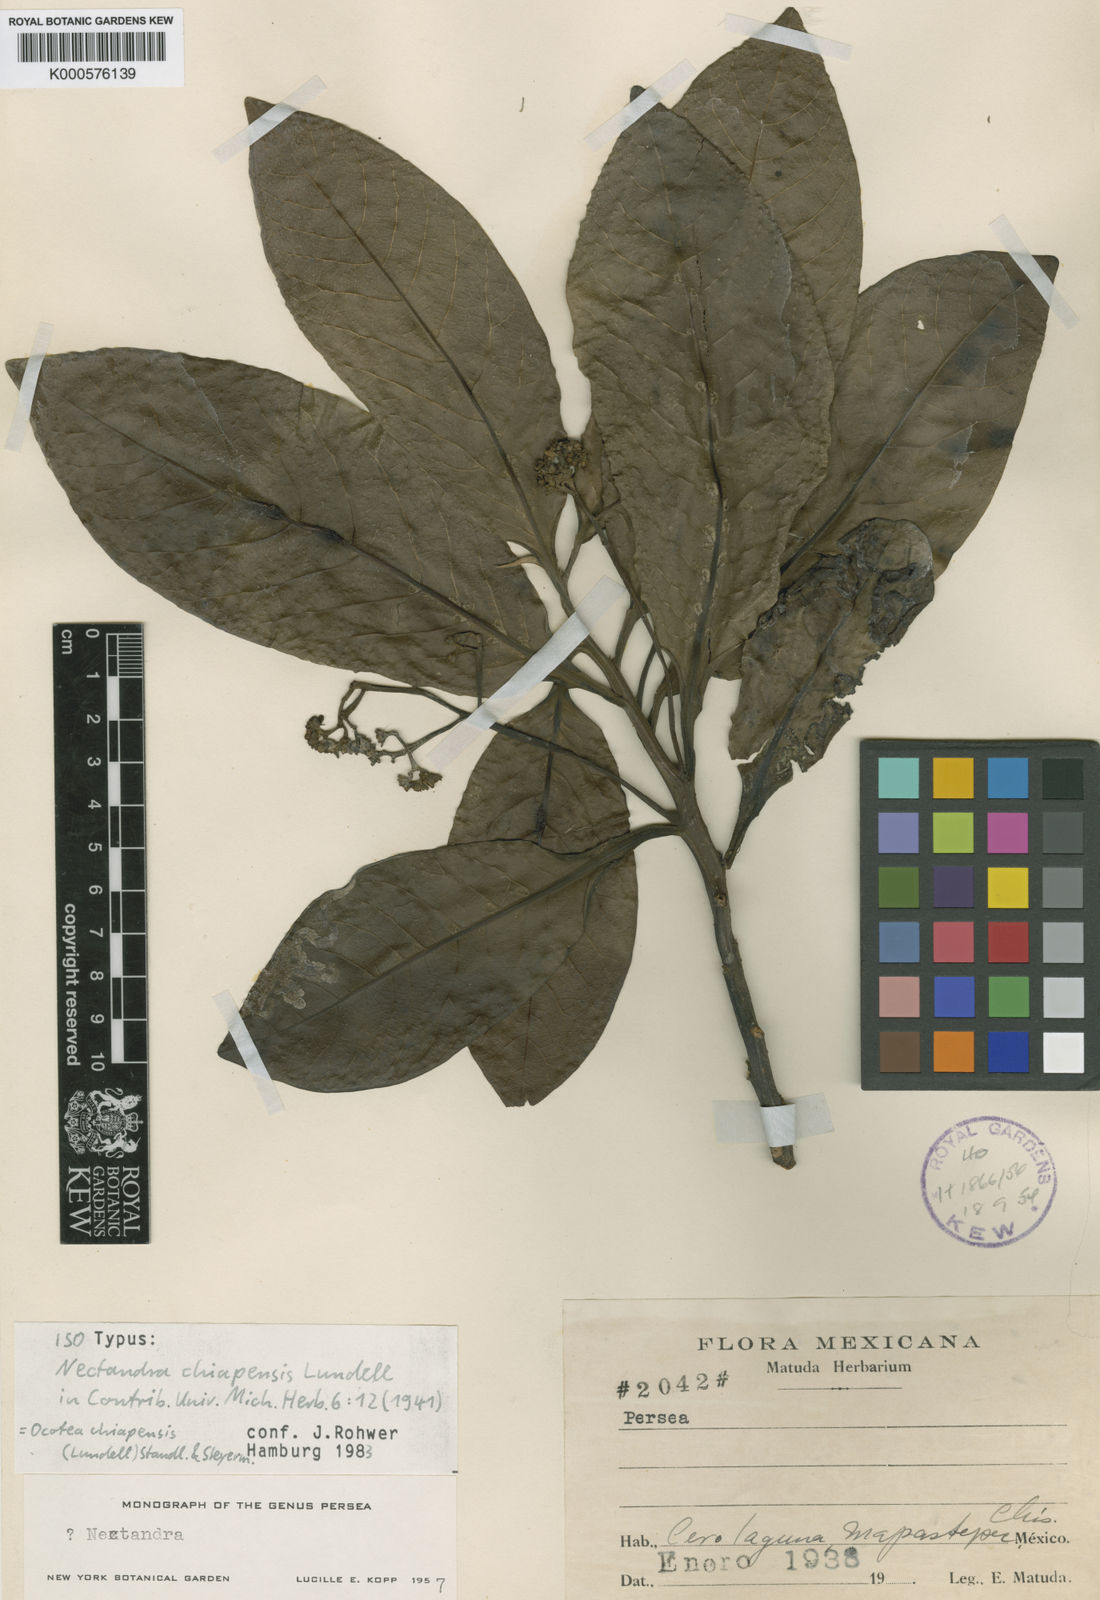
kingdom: Plantae
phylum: Tracheophyta
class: Magnoliopsida
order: Laurales
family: Lauraceae
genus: Ocotea
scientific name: Ocotea chiapensis
